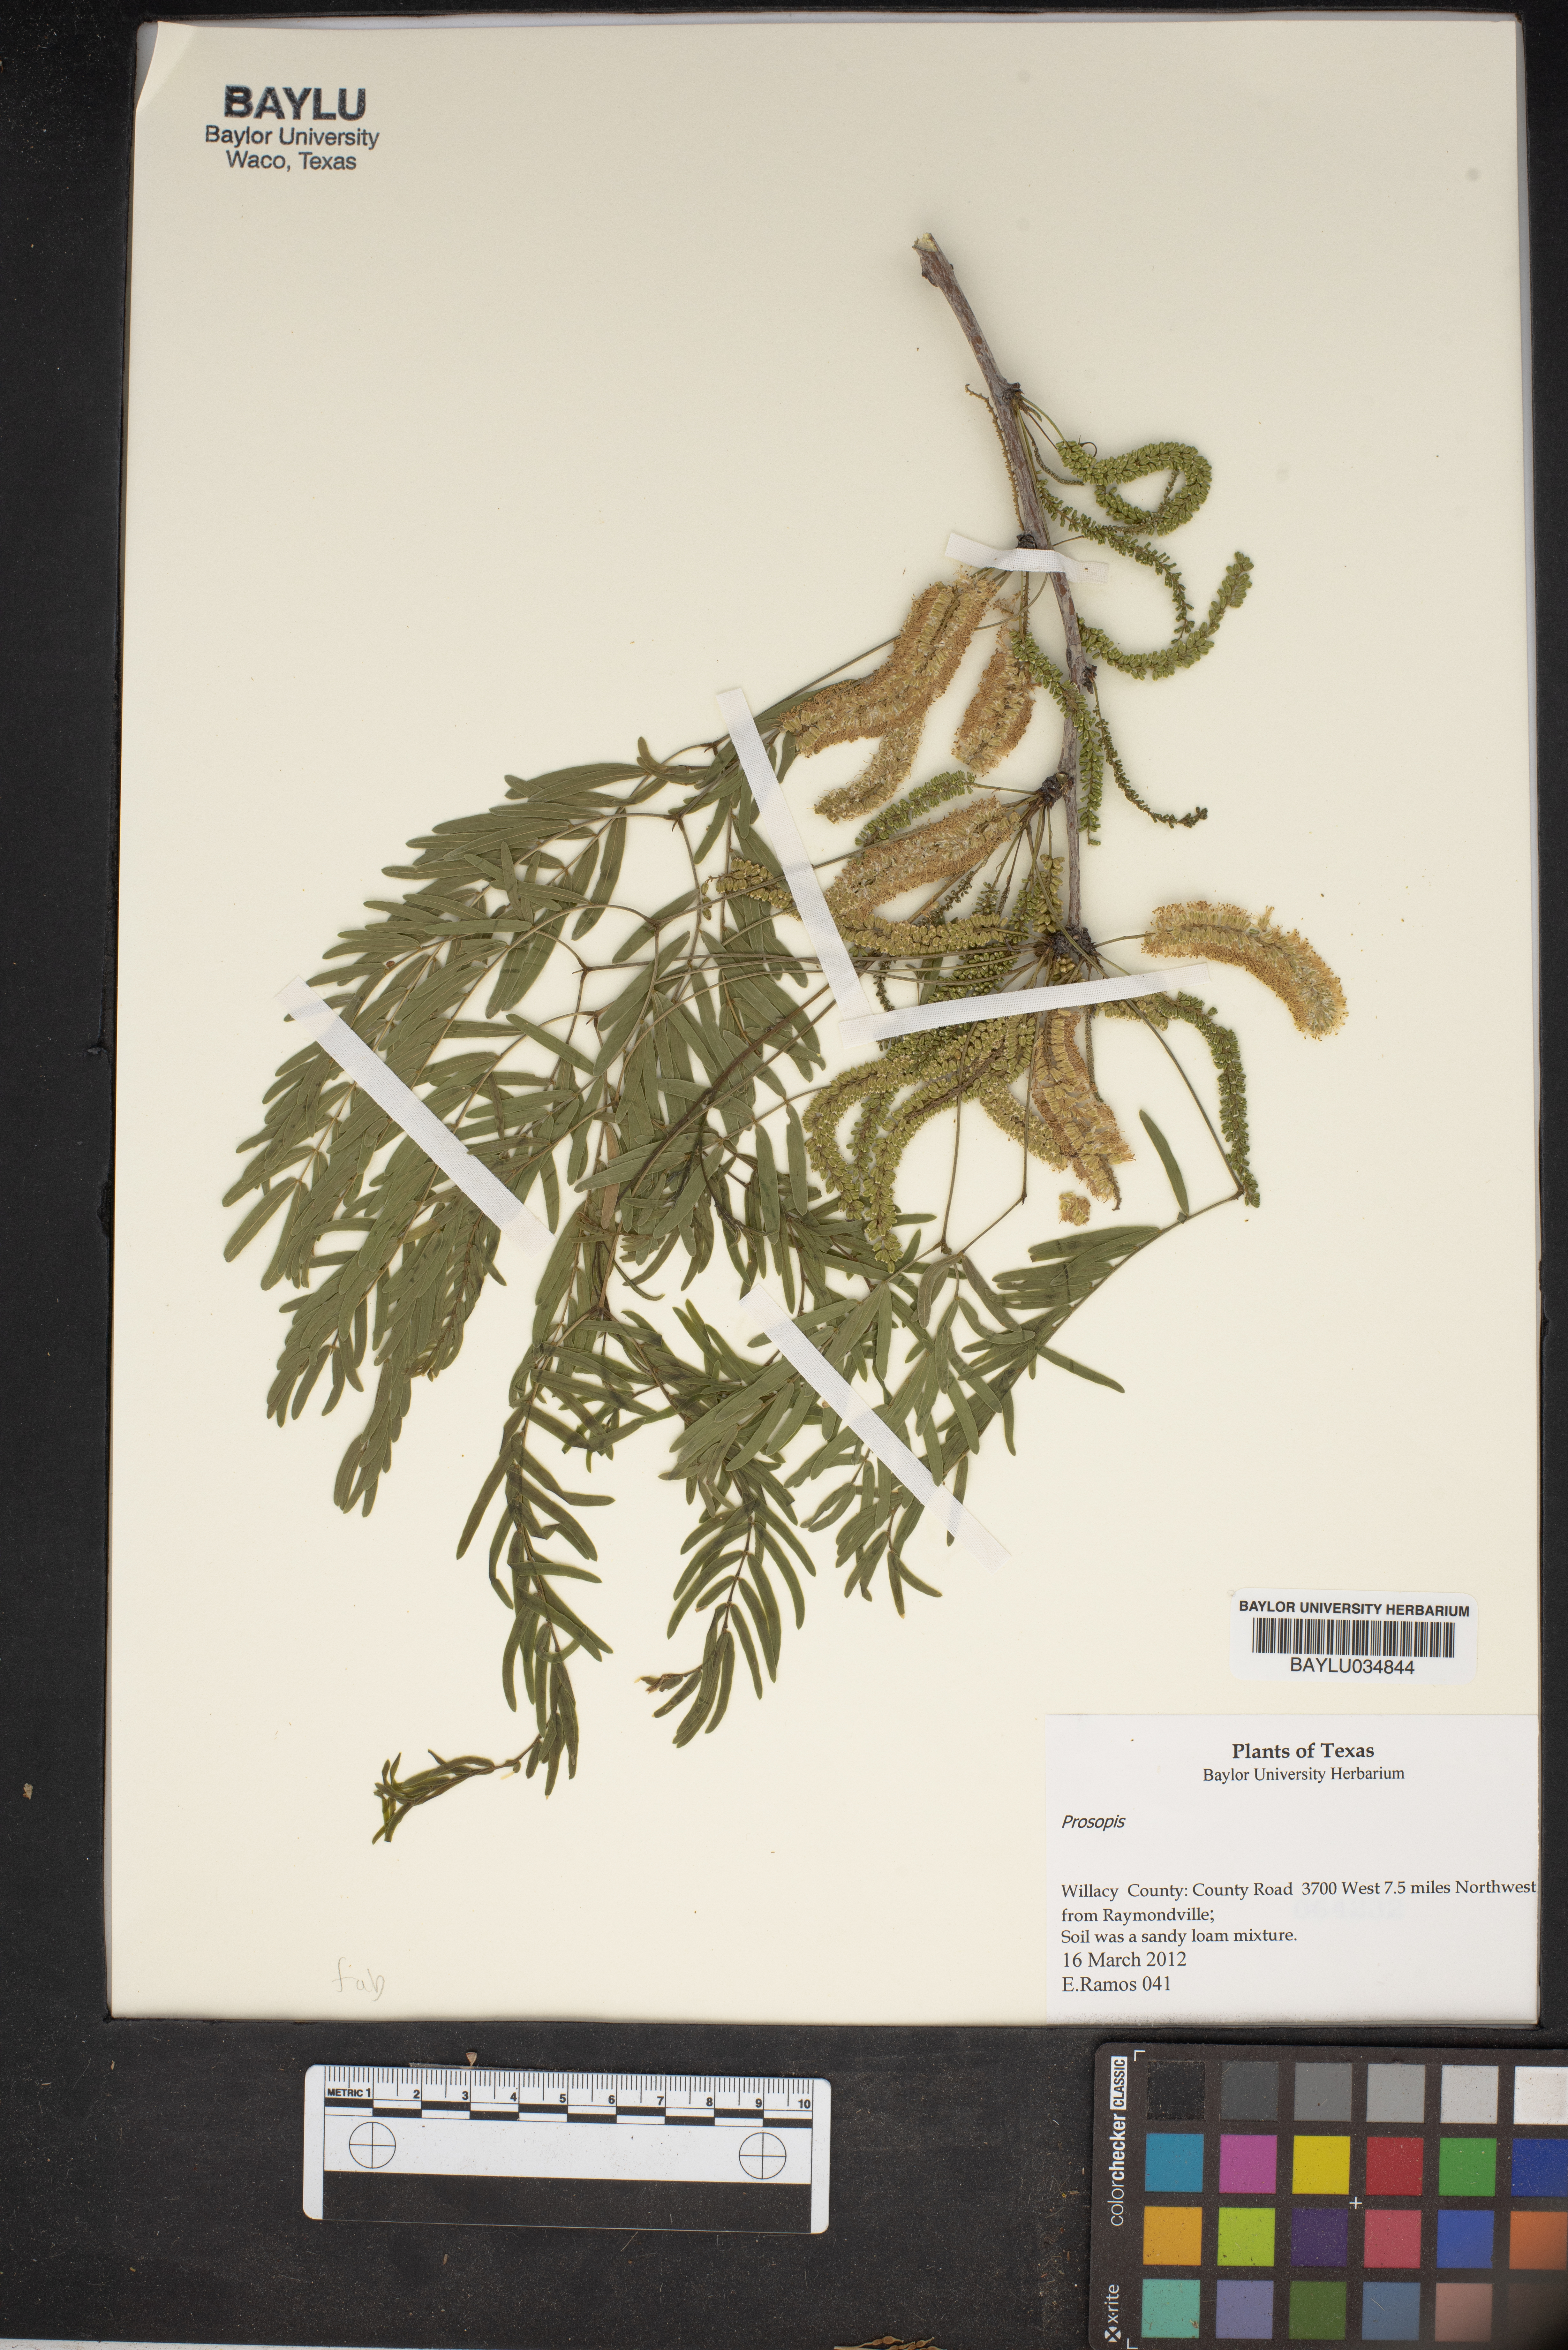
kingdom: Plantae
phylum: Tracheophyta
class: Magnoliopsida
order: Fabales
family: Fabaceae
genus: Prosopis
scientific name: Prosopis
